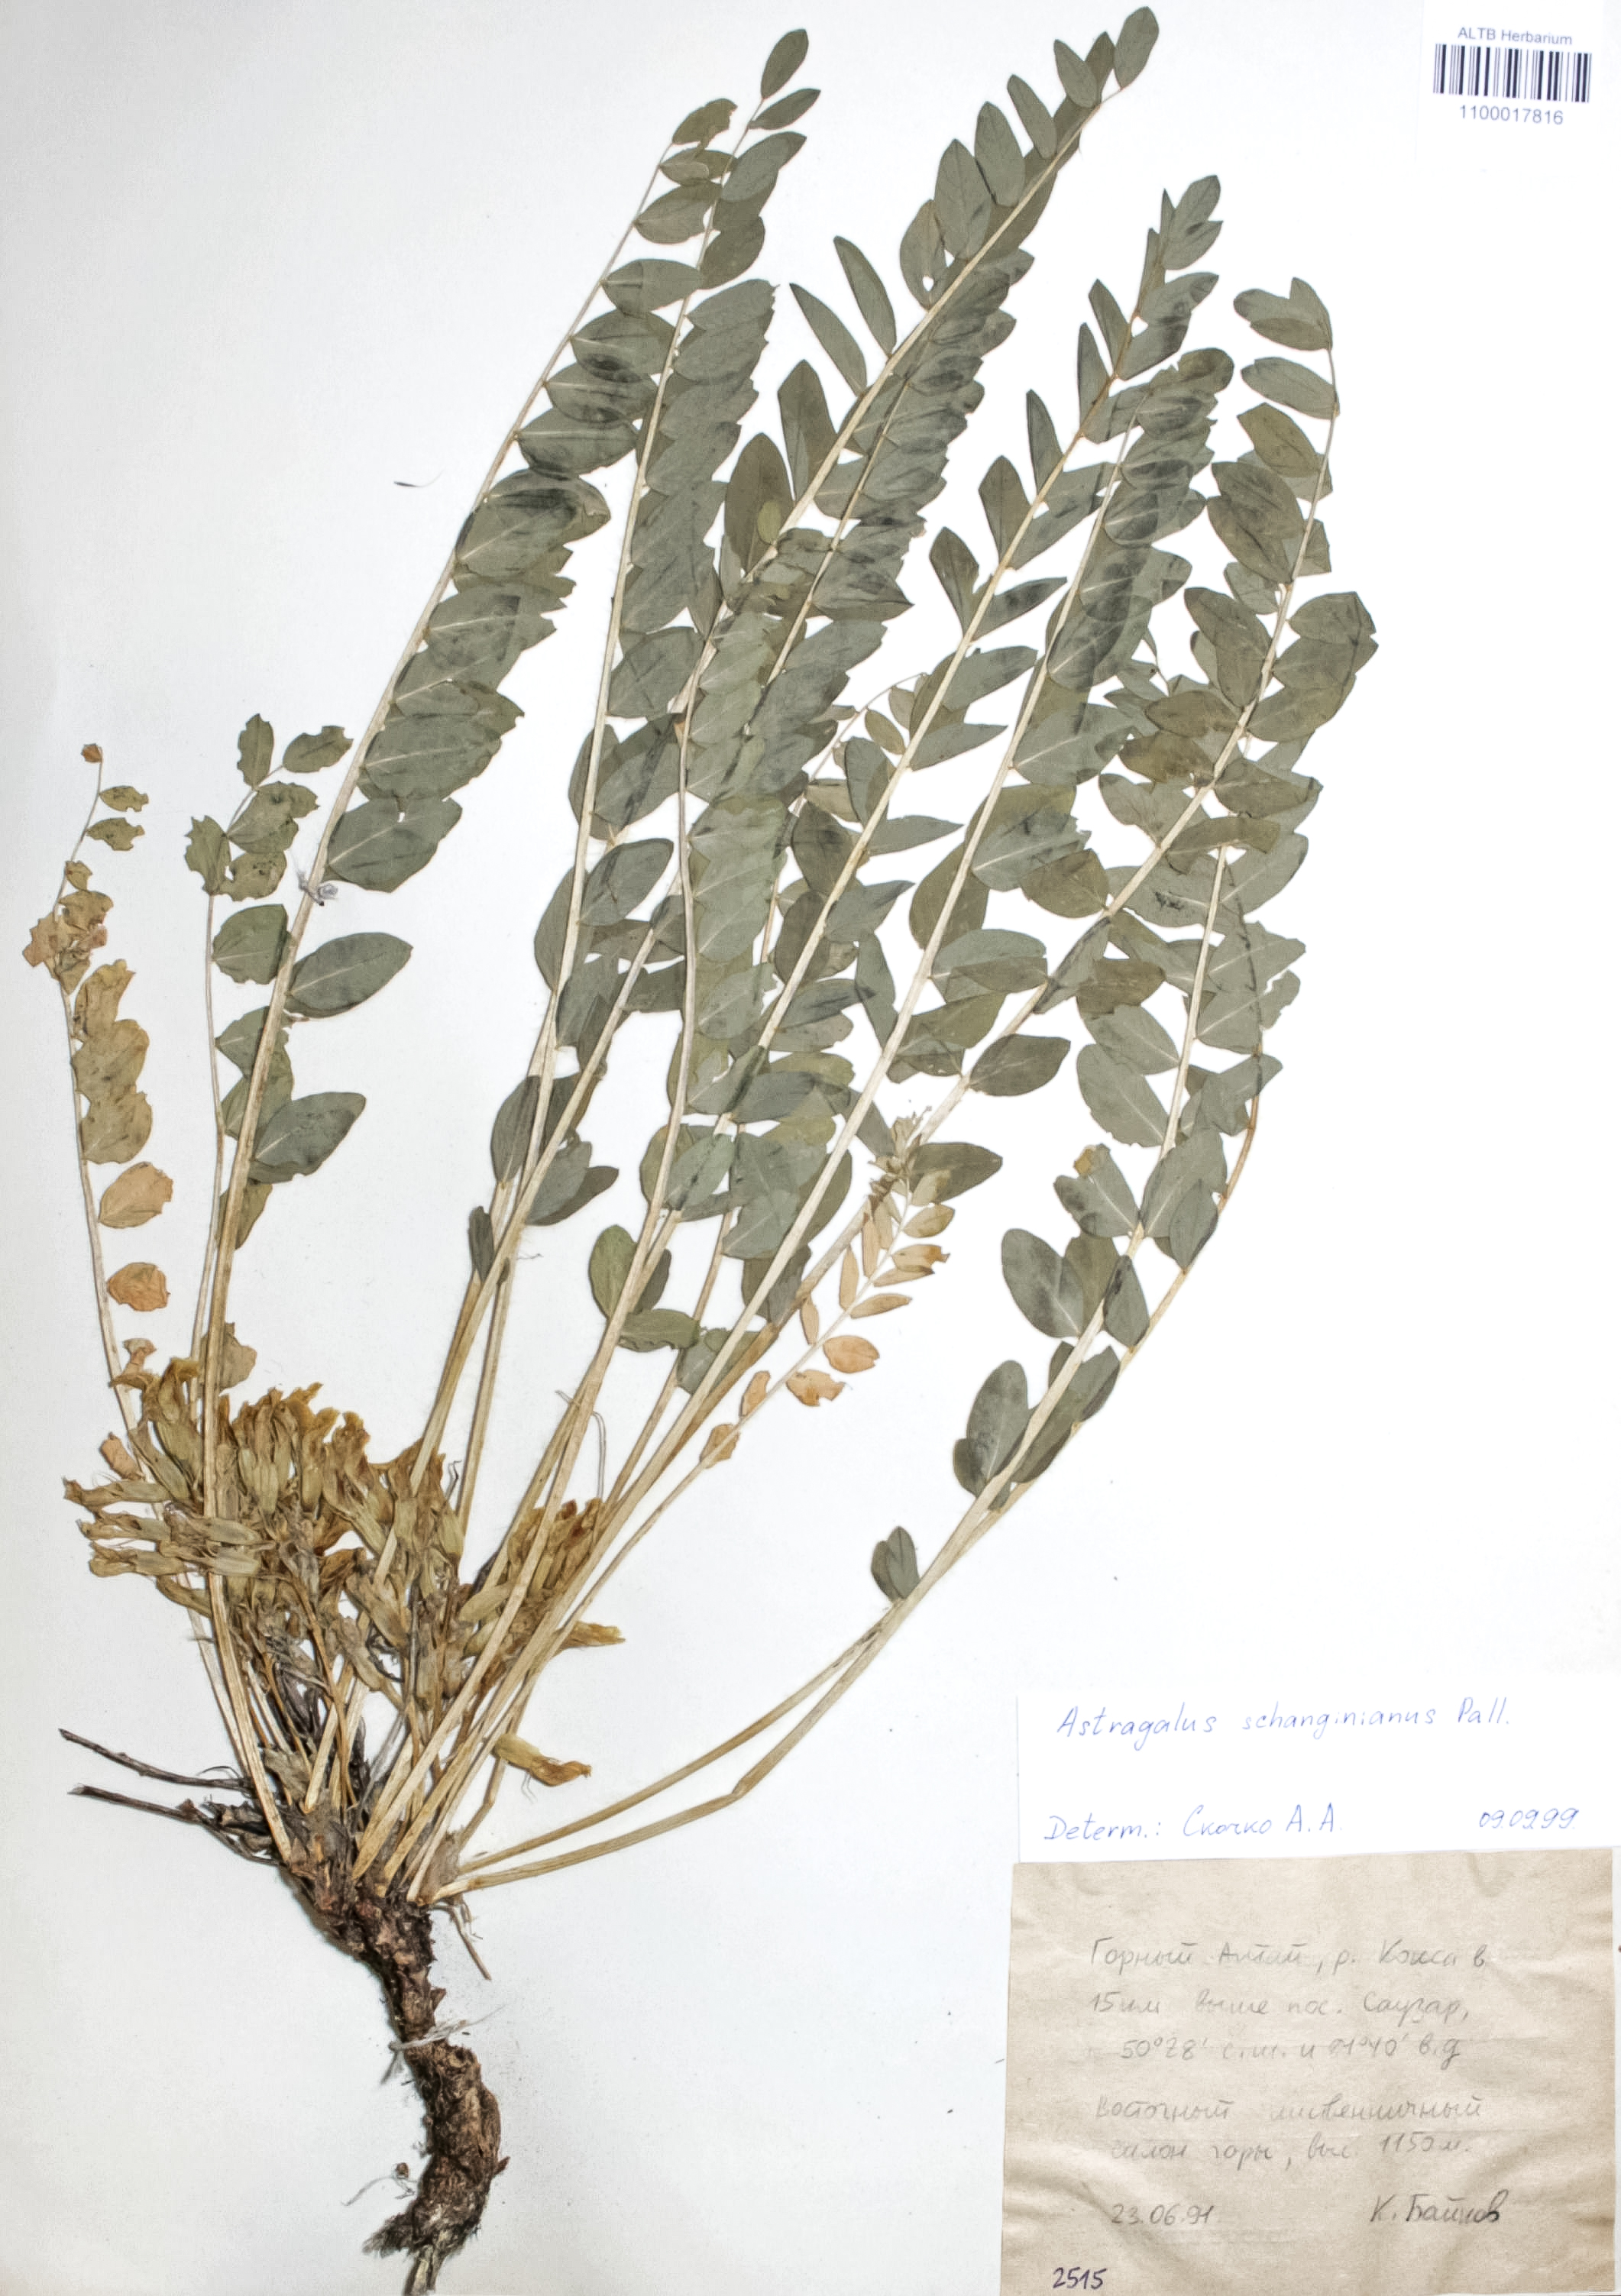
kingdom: Plantae
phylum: Tracheophyta
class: Magnoliopsida
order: Fabales
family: Fabaceae
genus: Astragalus
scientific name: Astragalus schanginianus
